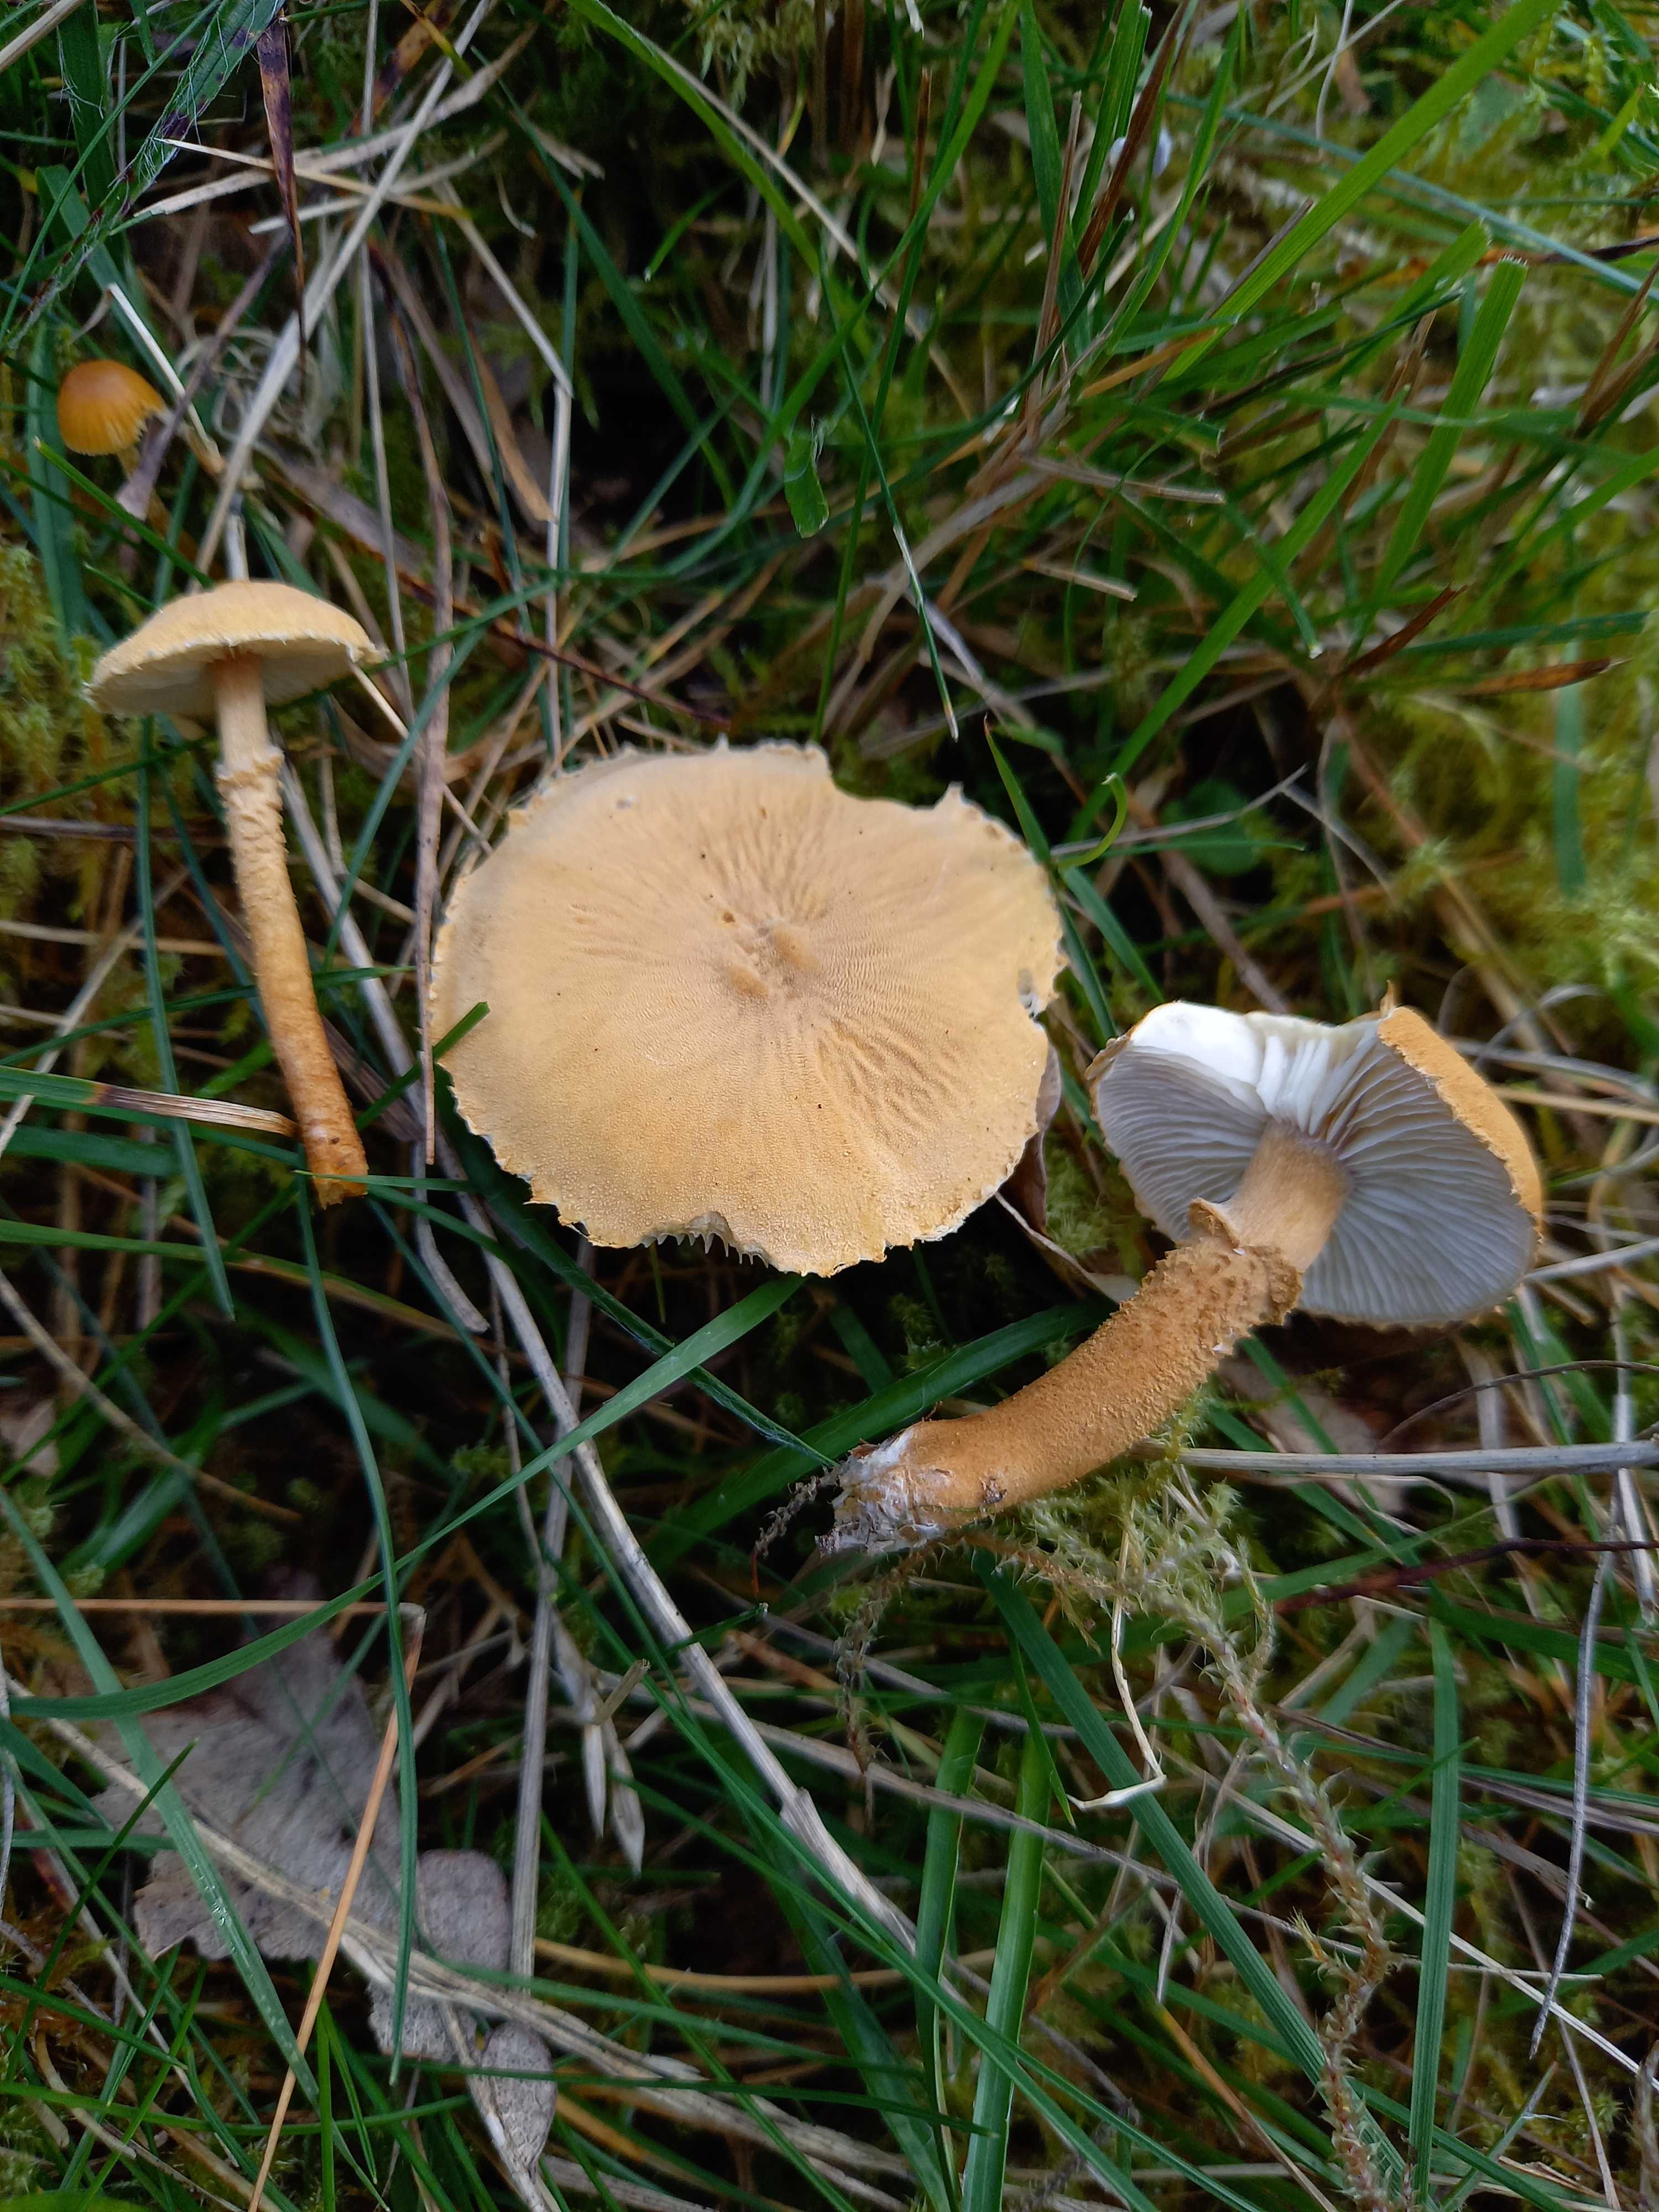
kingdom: Fungi
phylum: Basidiomycota
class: Agaricomycetes
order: Agaricales
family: Tricholomataceae
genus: Cystoderma
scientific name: Cystoderma amianthinum
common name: okkergul grynhat
